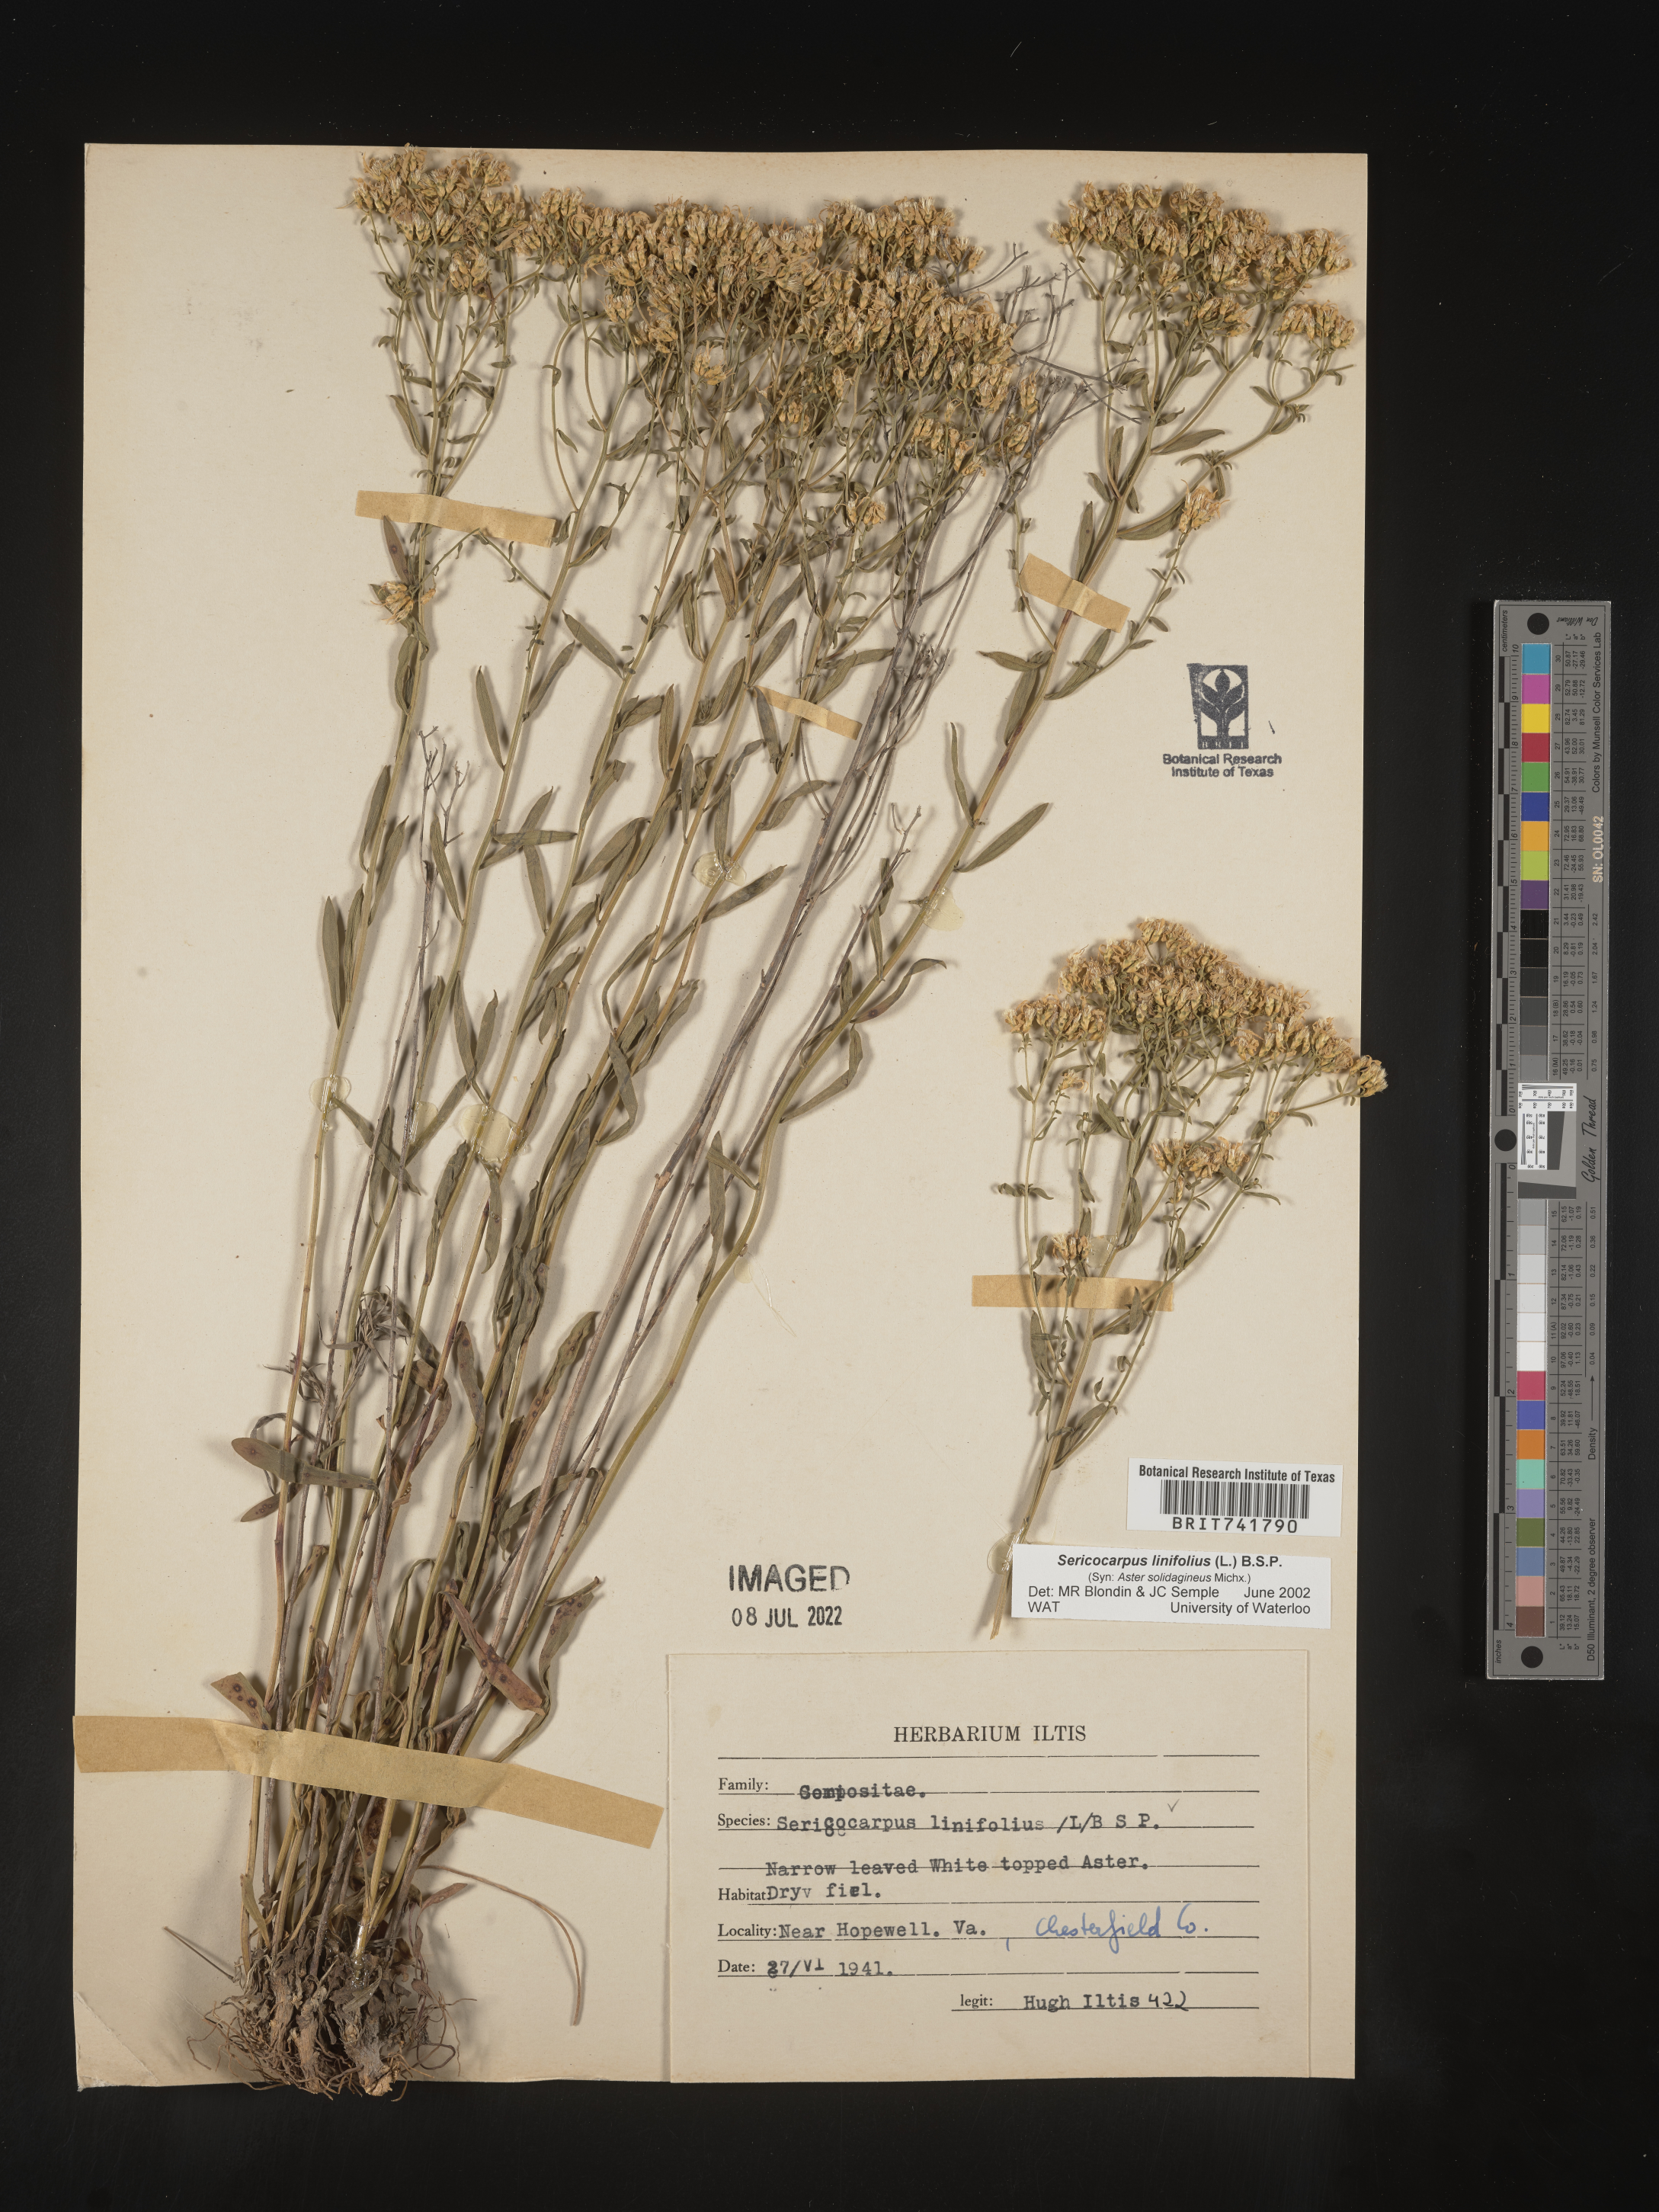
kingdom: Plantae
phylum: Tracheophyta
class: Magnoliopsida
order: Asterales
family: Asteraceae
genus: Sericocarpus
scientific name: Sericocarpus linifolius
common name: Narrow-leaf aster
